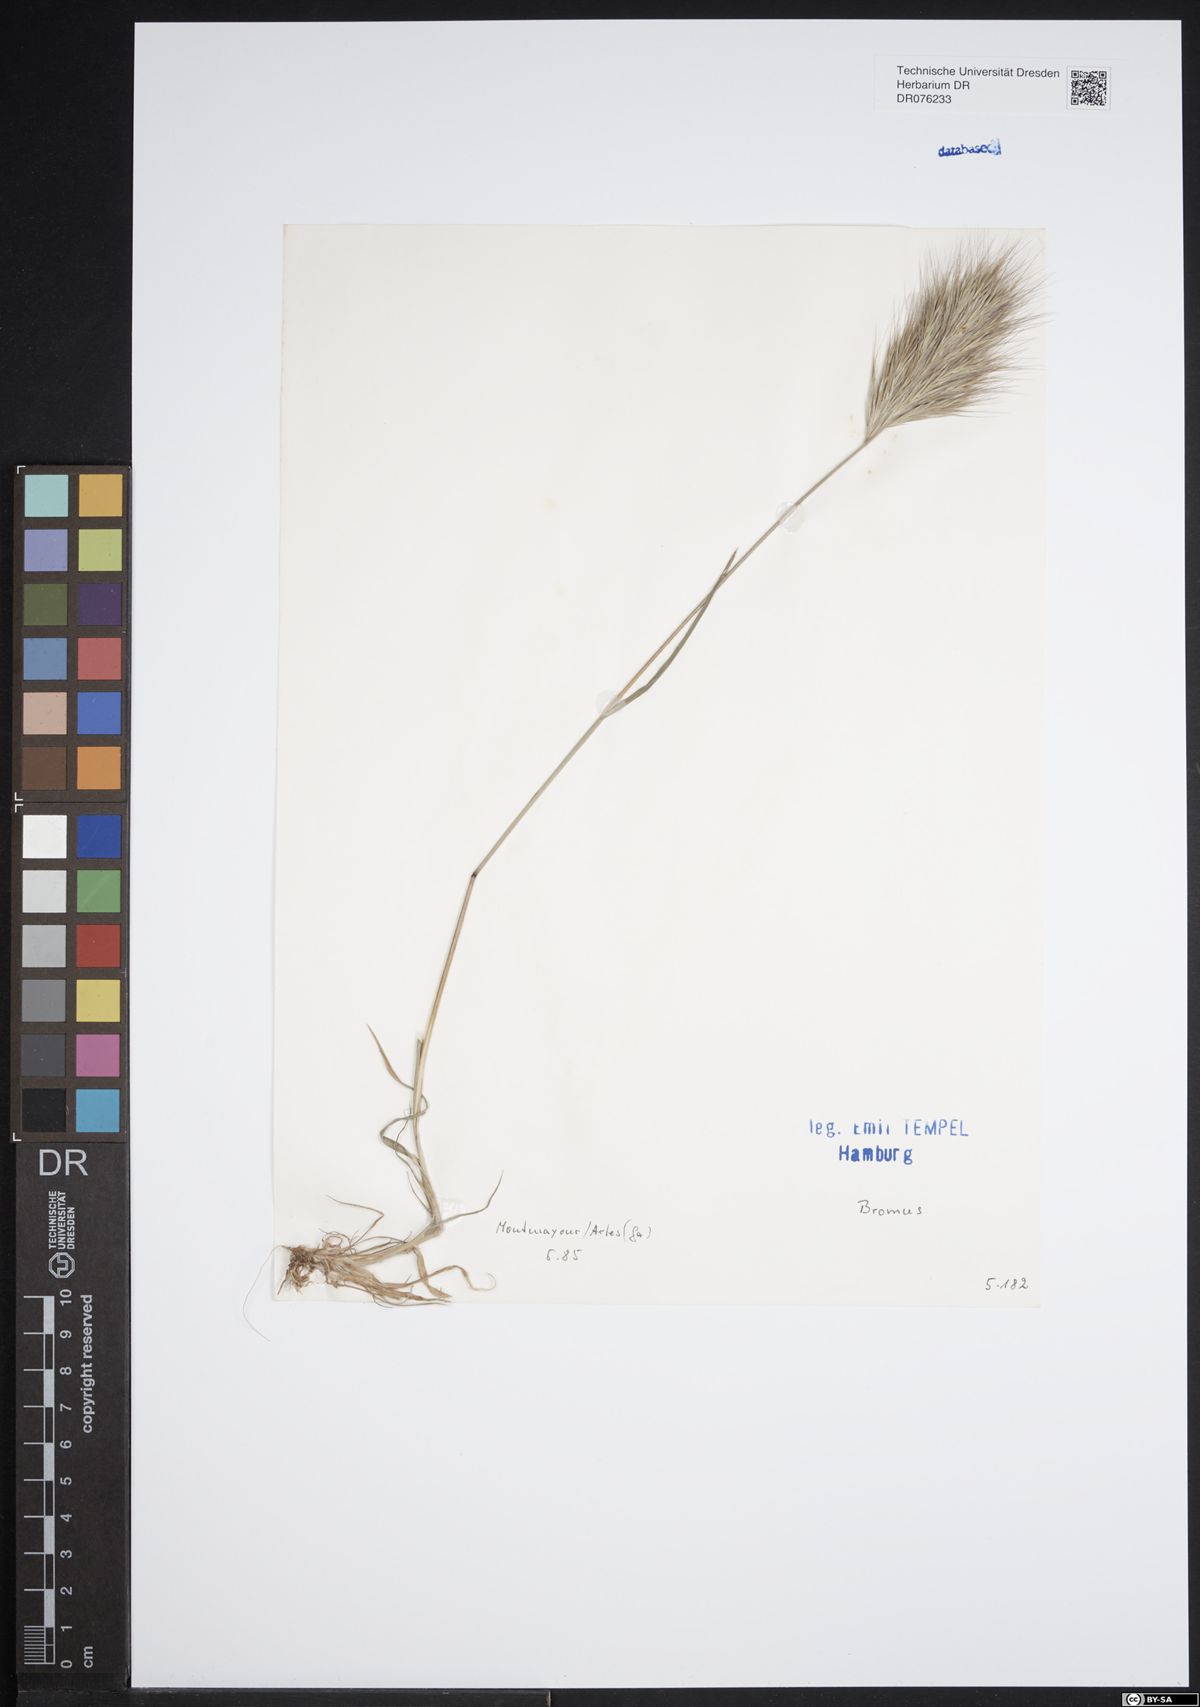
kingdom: Plantae
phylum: Tracheophyta
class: Liliopsida
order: Poales
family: Poaceae
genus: Bromus
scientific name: Bromus
